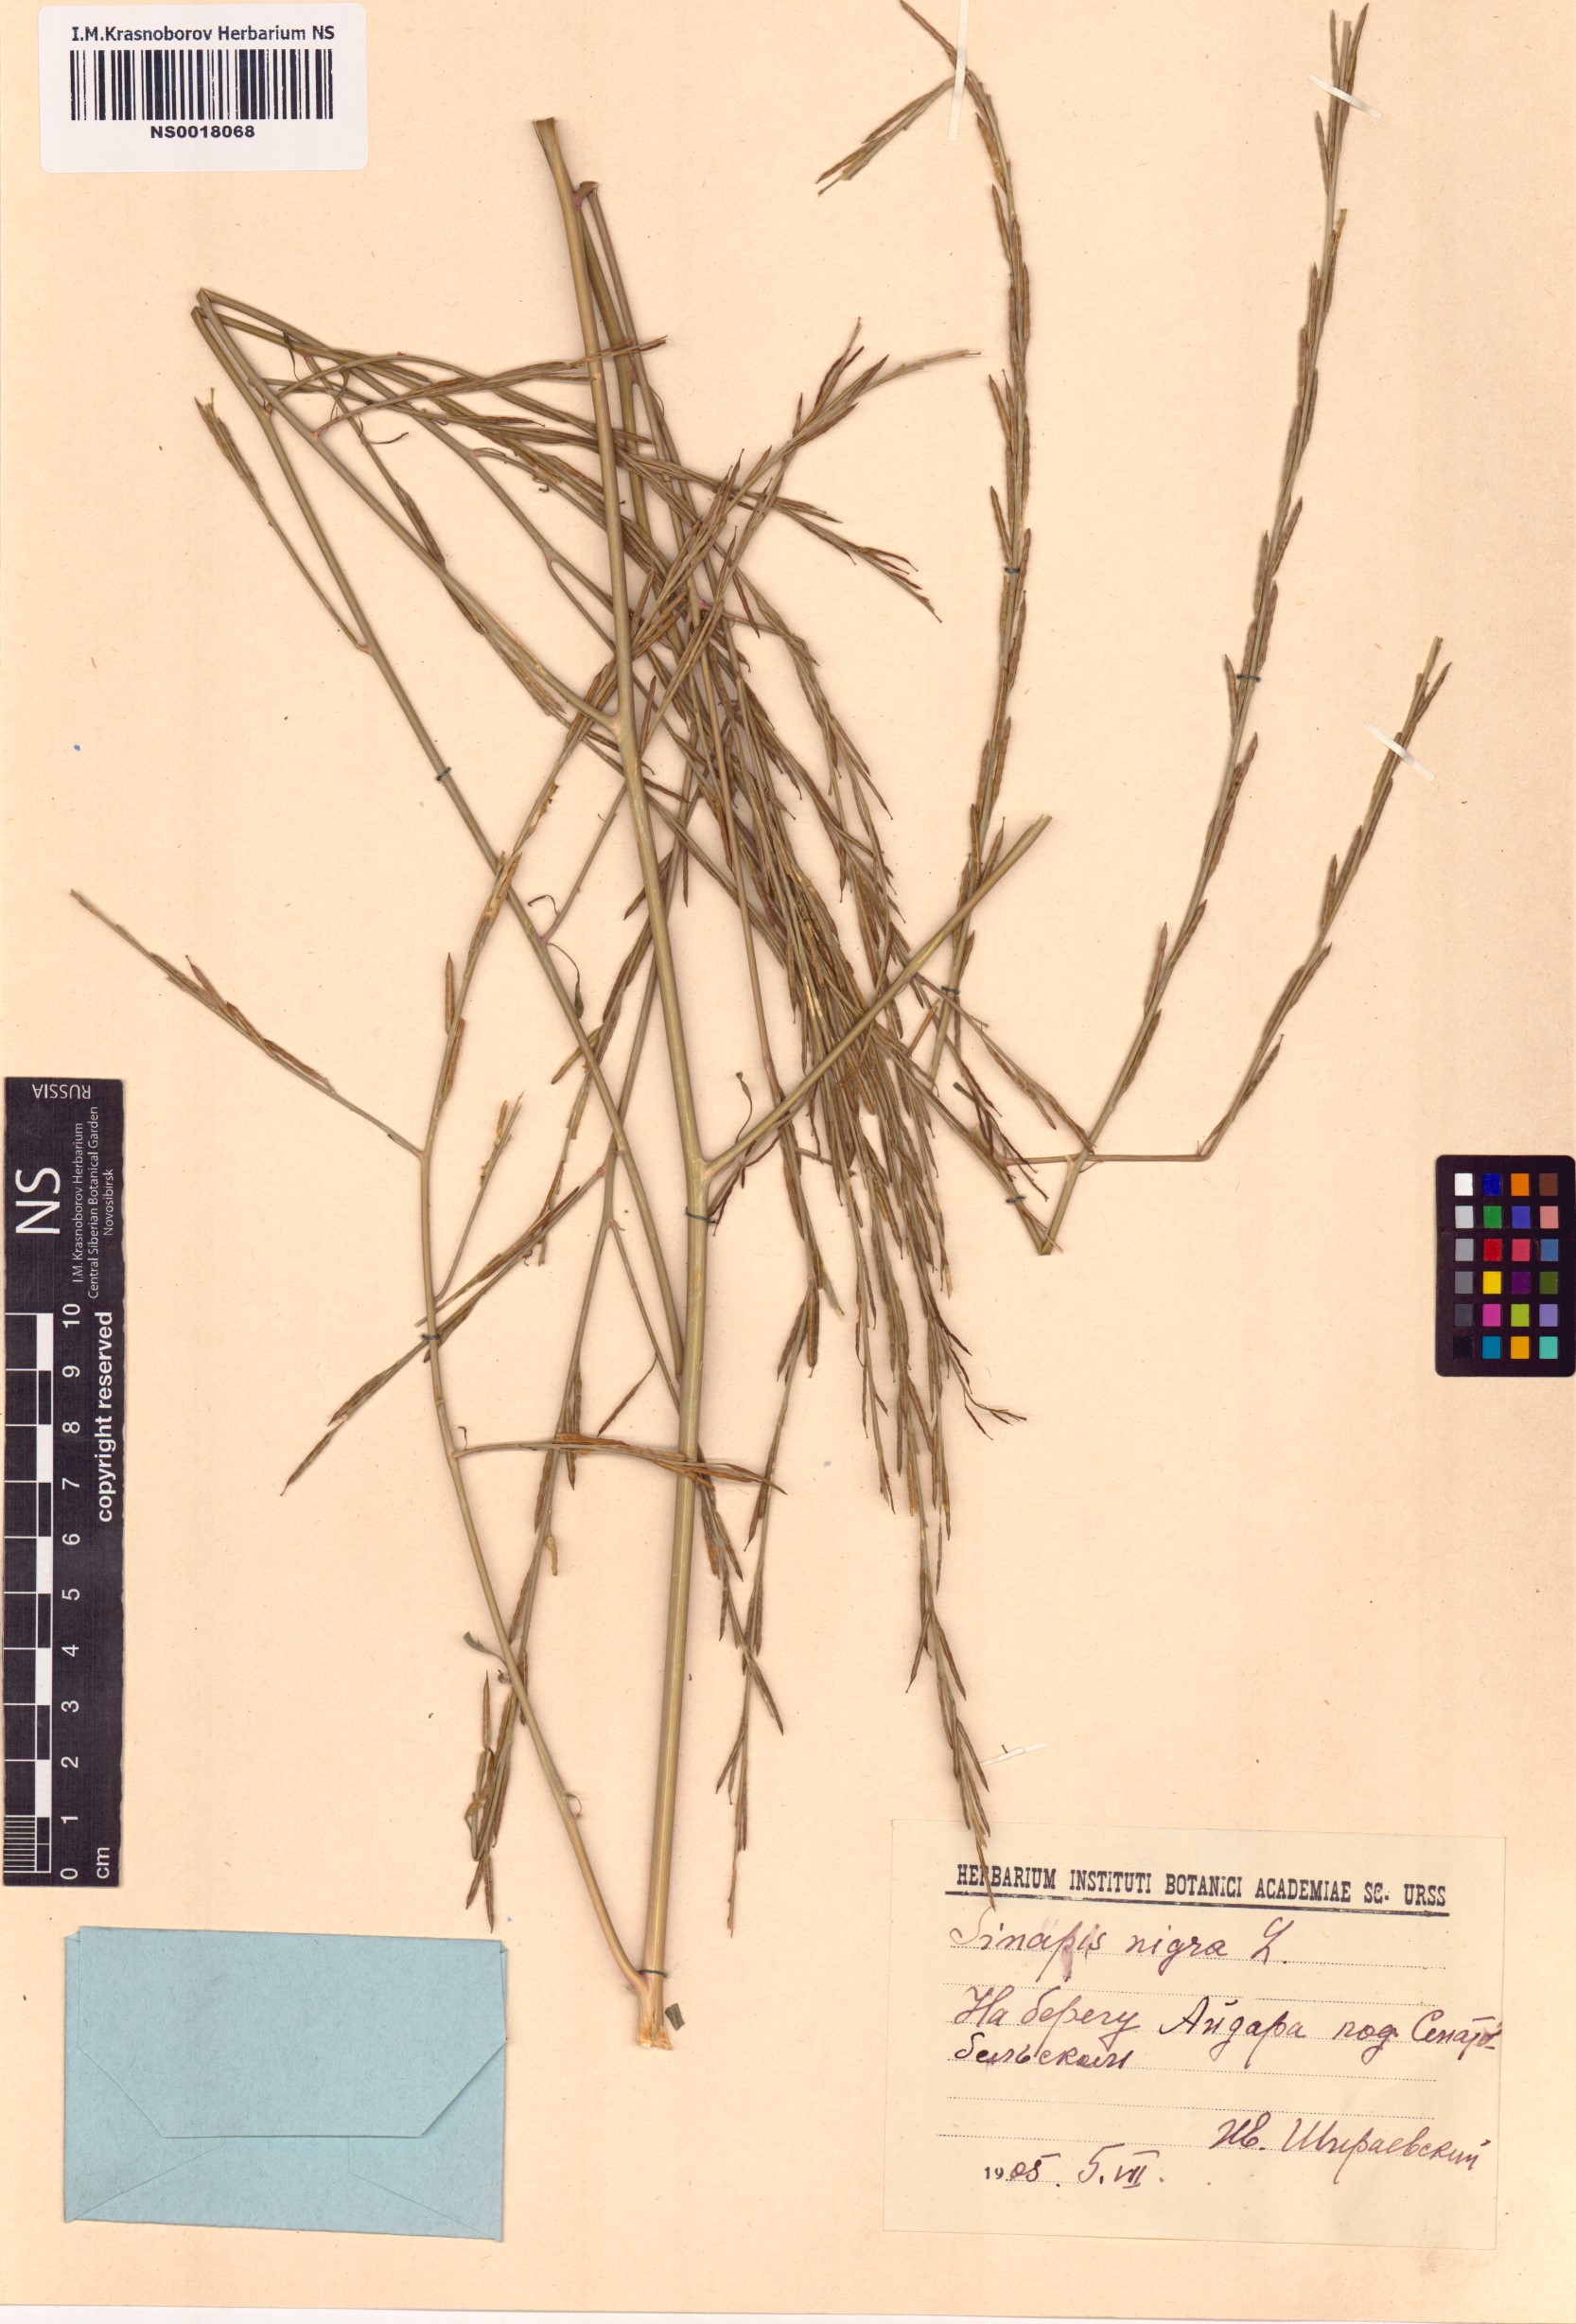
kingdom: Plantae
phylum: Tracheophyta
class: Magnoliopsida
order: Brassicales
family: Brassicaceae
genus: Brassica
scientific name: Brassica nigra
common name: Black mustard
